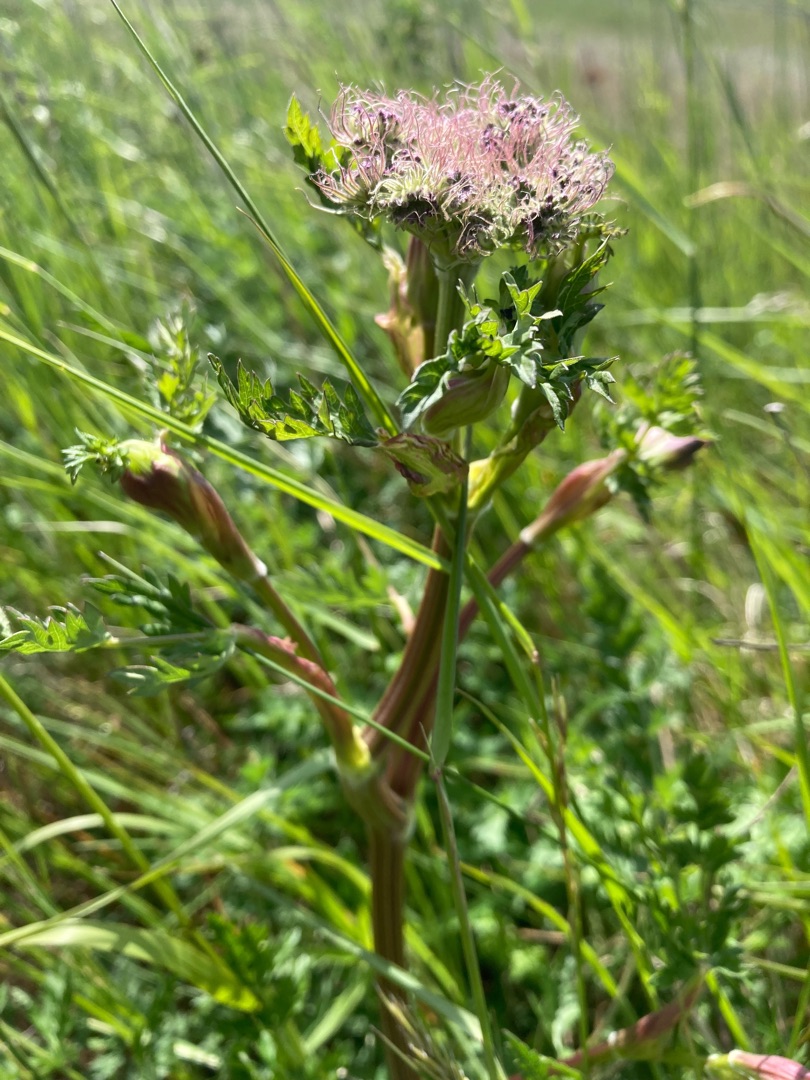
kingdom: Plantae
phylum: Tracheophyta
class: Magnoliopsida
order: Apiales
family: Apiaceae
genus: Seseli
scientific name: Seseli libanotis
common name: Hjorterod
